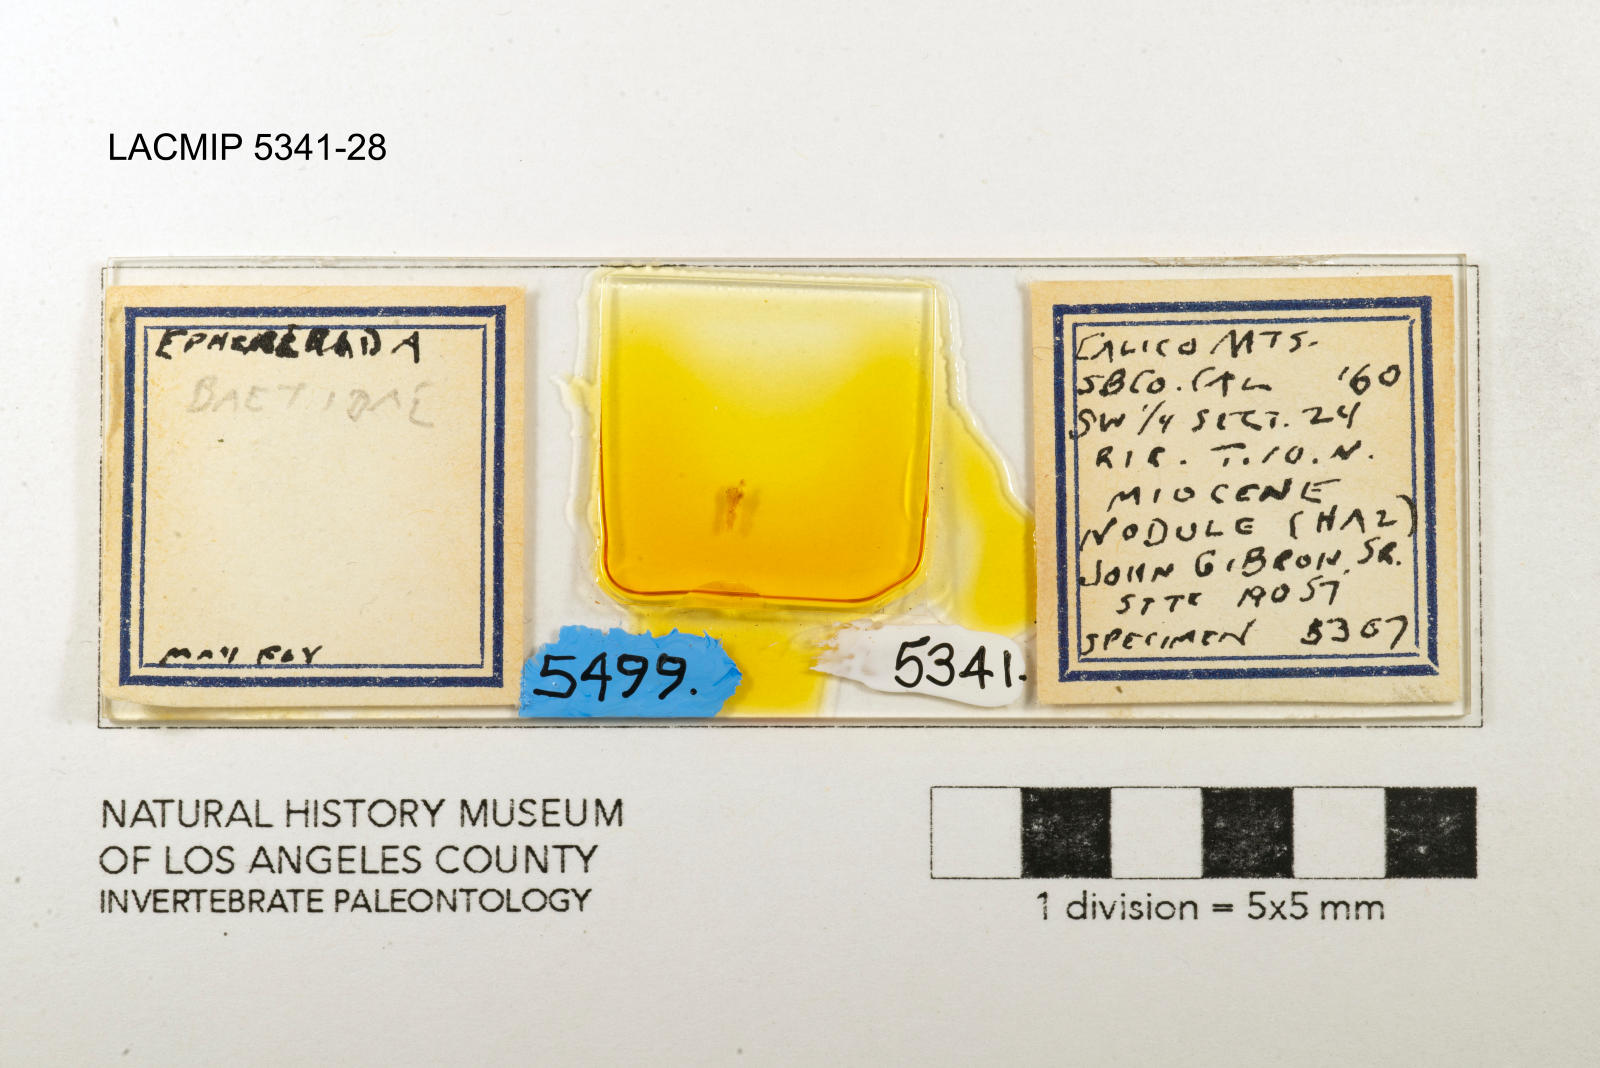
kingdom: Animalia
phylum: Arthropoda
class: Insecta
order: Ephemeroptera
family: Baetidae
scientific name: Baetidae
